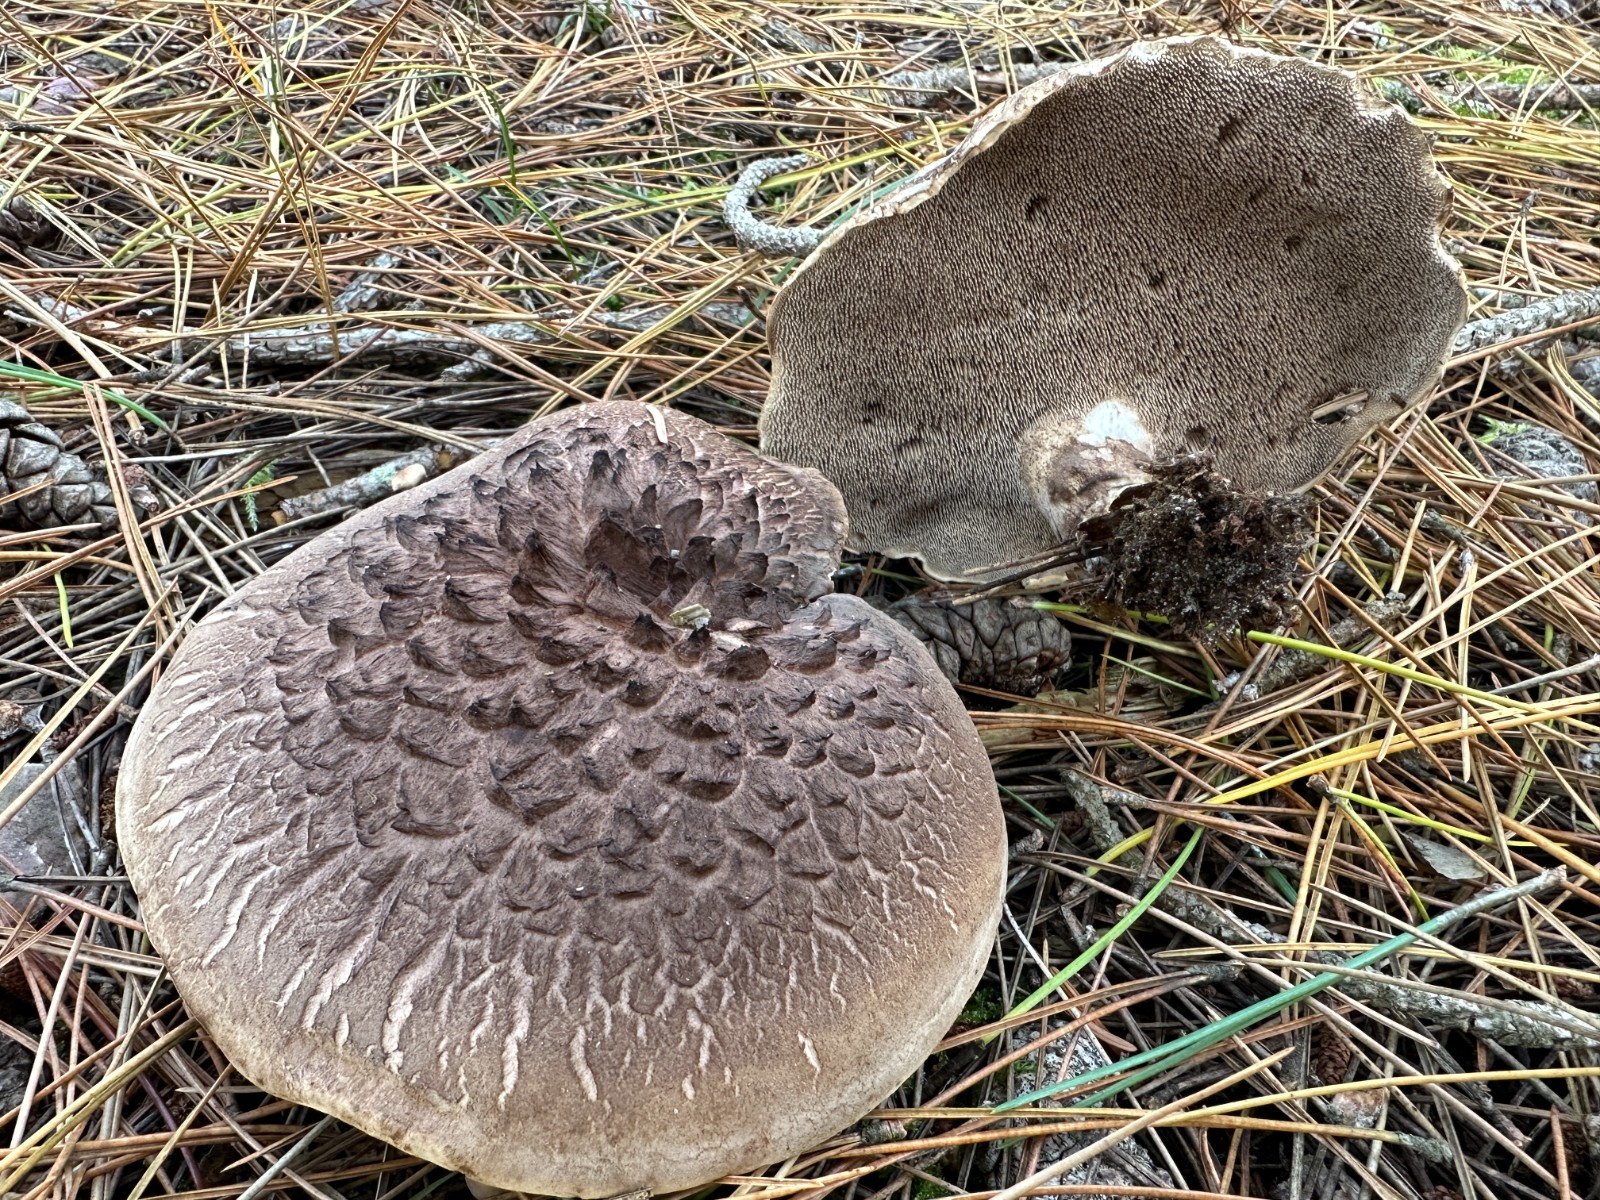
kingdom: Fungi
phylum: Basidiomycota
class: Agaricomycetes
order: Thelephorales
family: Bankeraceae
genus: Sarcodon
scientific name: Sarcodon squamosus
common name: småskællet kødpigsvamp
